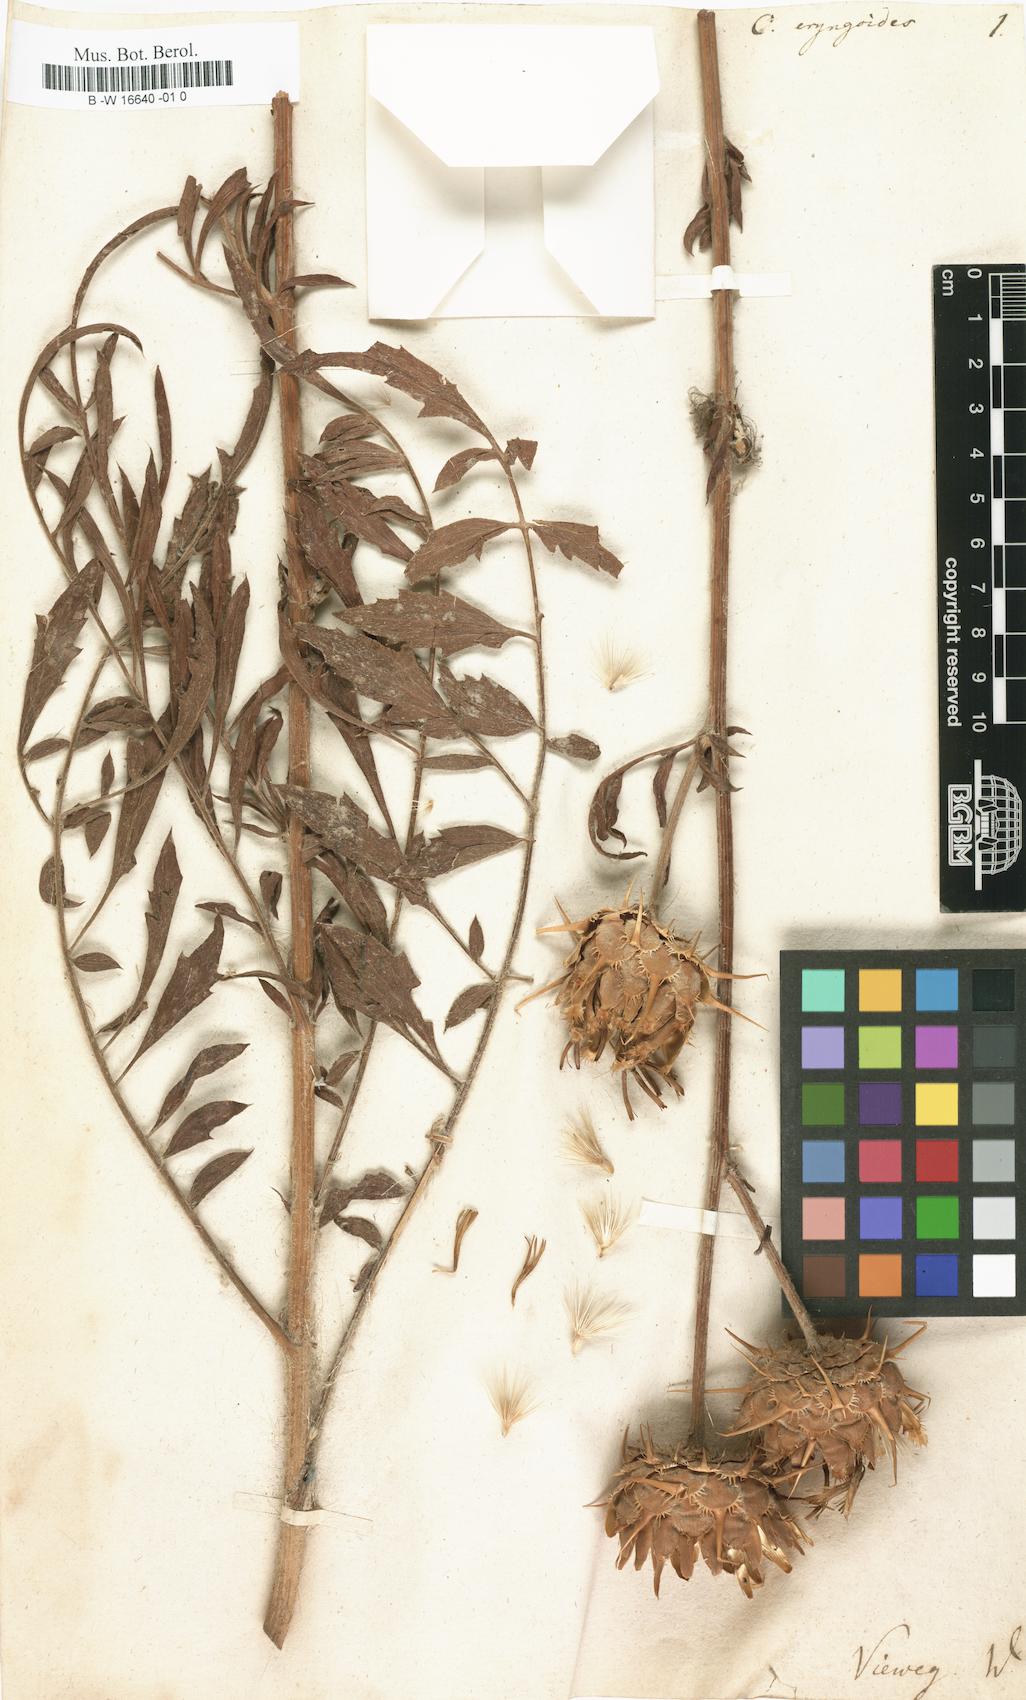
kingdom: Plantae
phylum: Tracheophyta
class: Magnoliopsida
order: Asterales
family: Asteraceae
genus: Centaurea
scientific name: Centaurea eryngioides
